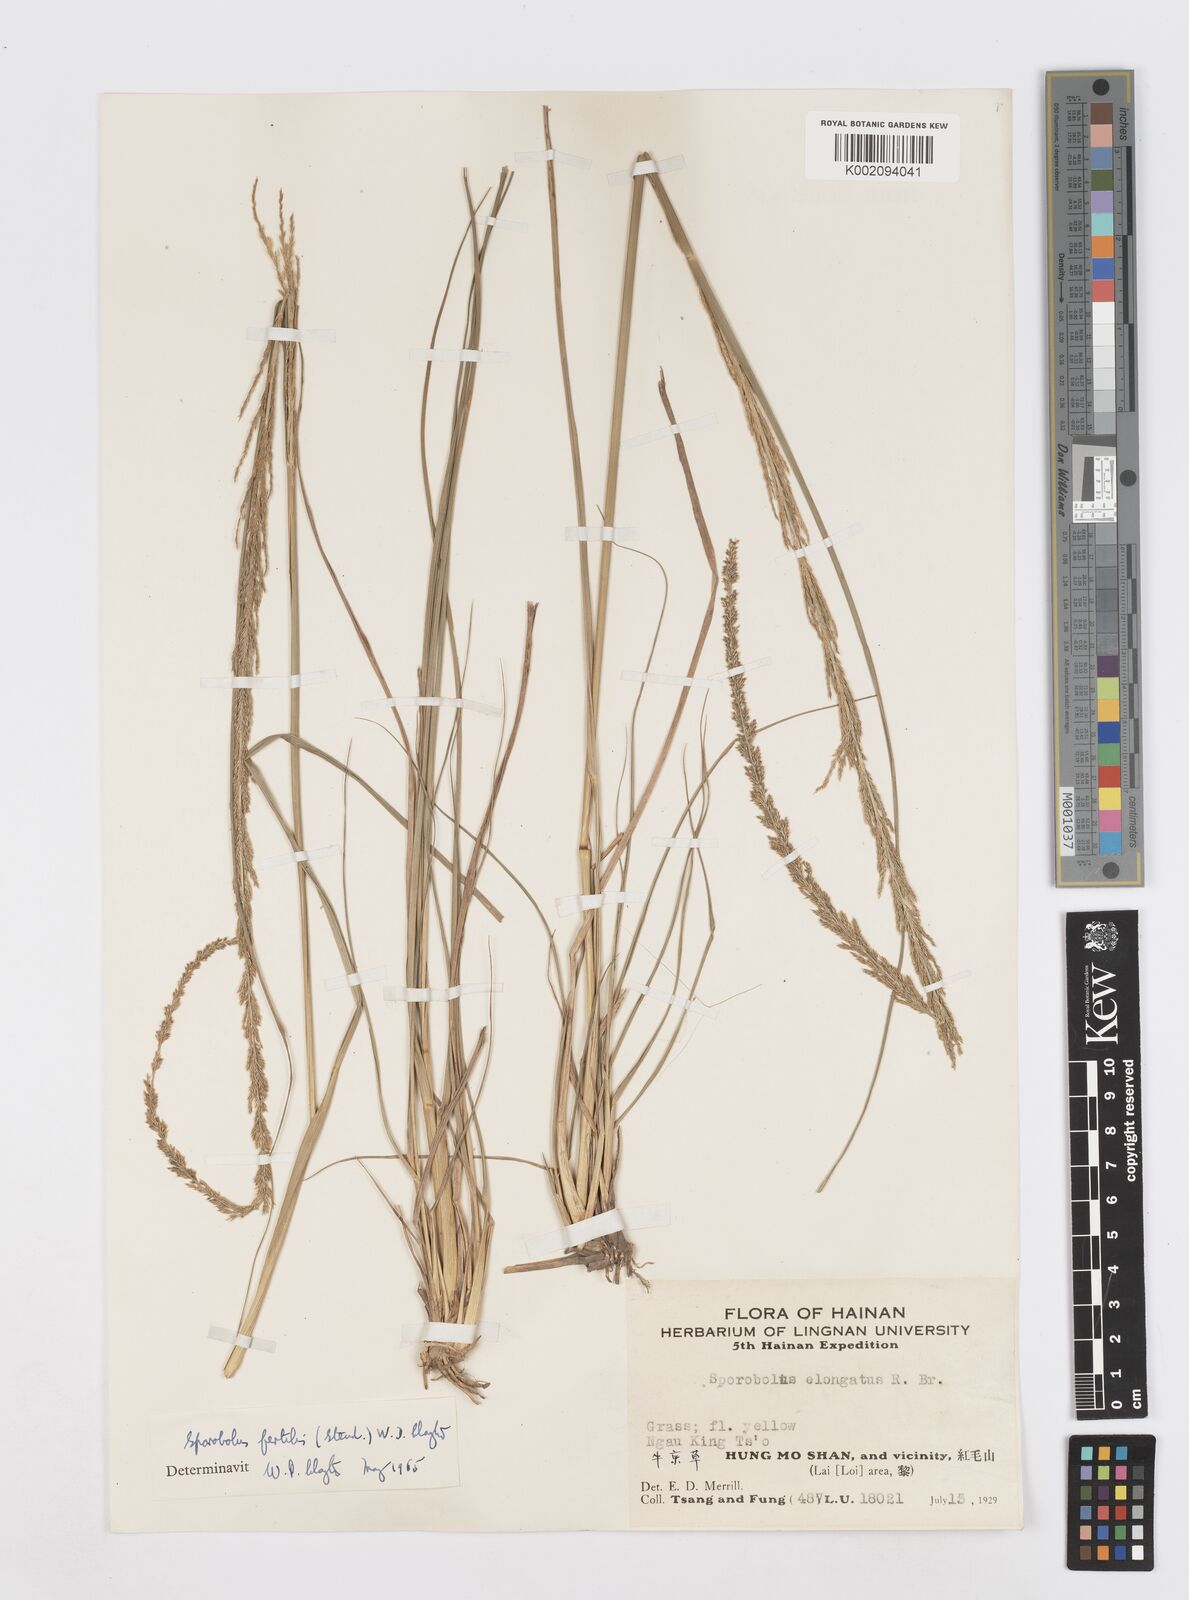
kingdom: Plantae
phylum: Tracheophyta
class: Liliopsida
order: Poales
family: Poaceae
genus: Sporobolus
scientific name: Sporobolus fertilis
